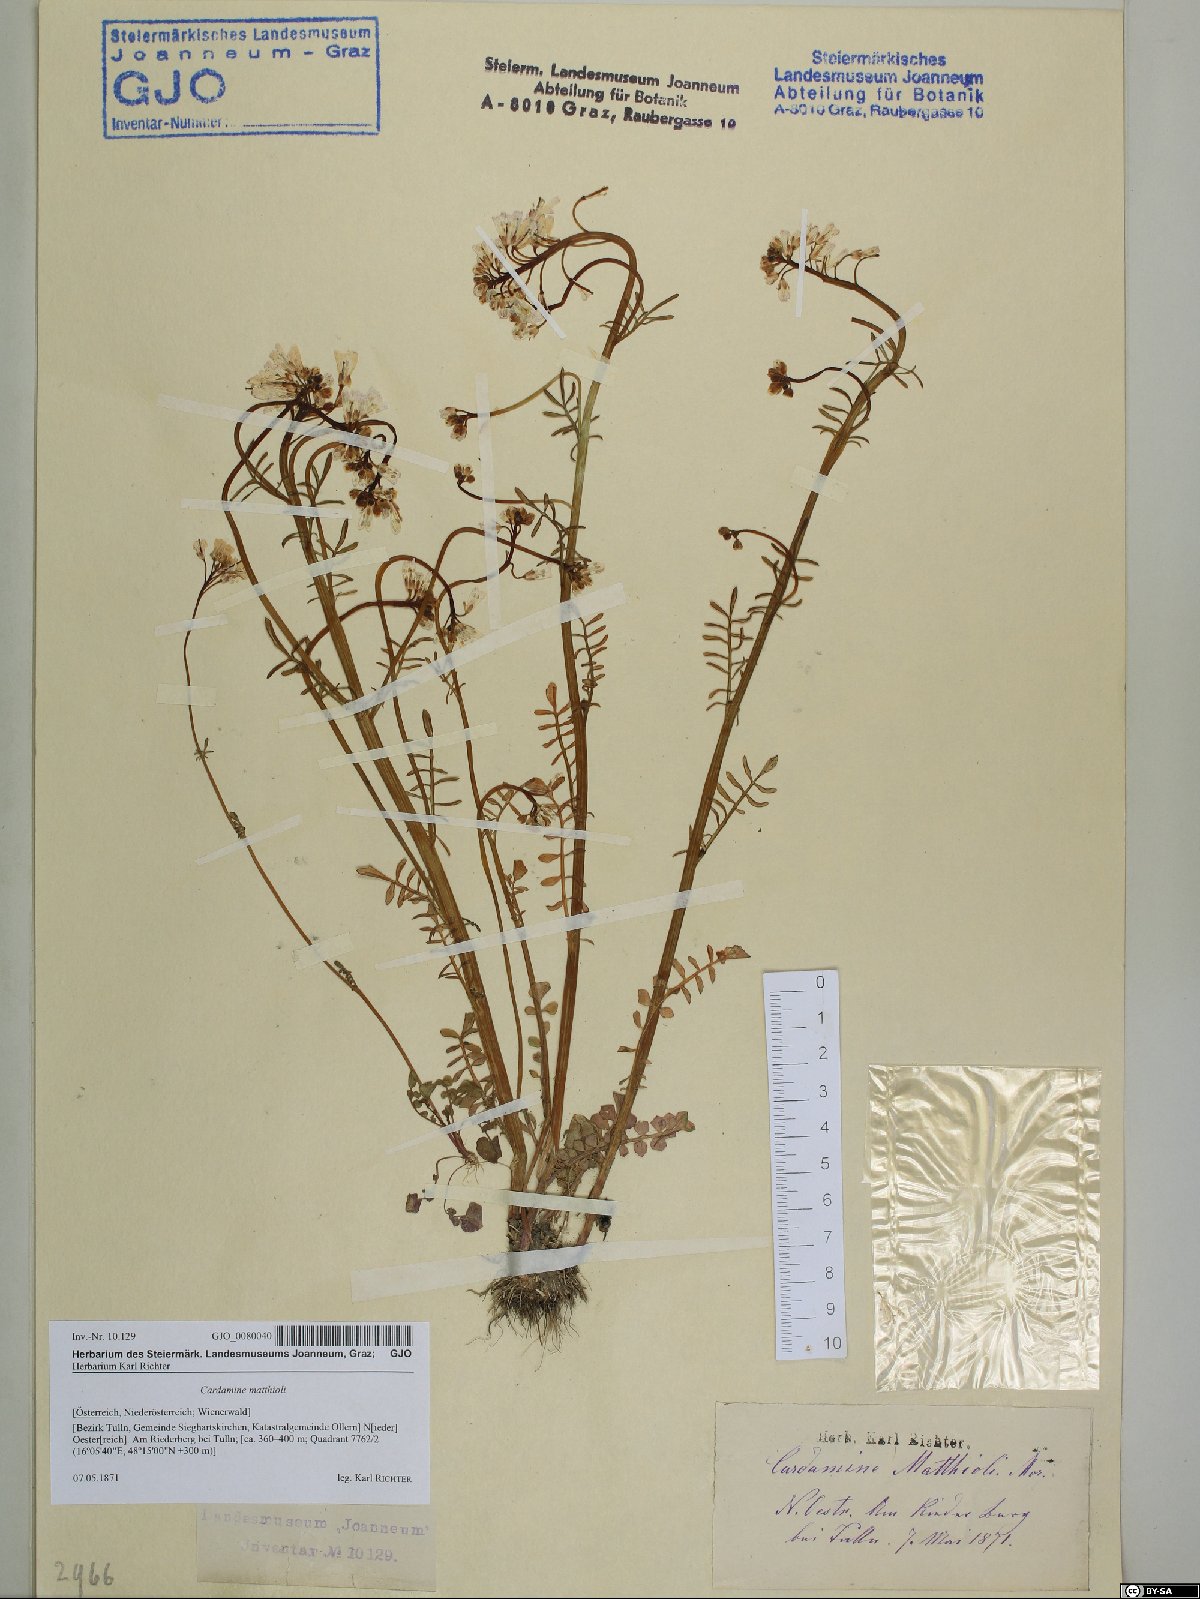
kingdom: Plantae
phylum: Tracheophyta
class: Magnoliopsida
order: Brassicales
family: Brassicaceae
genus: Cardamine
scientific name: Cardamine matthioli
